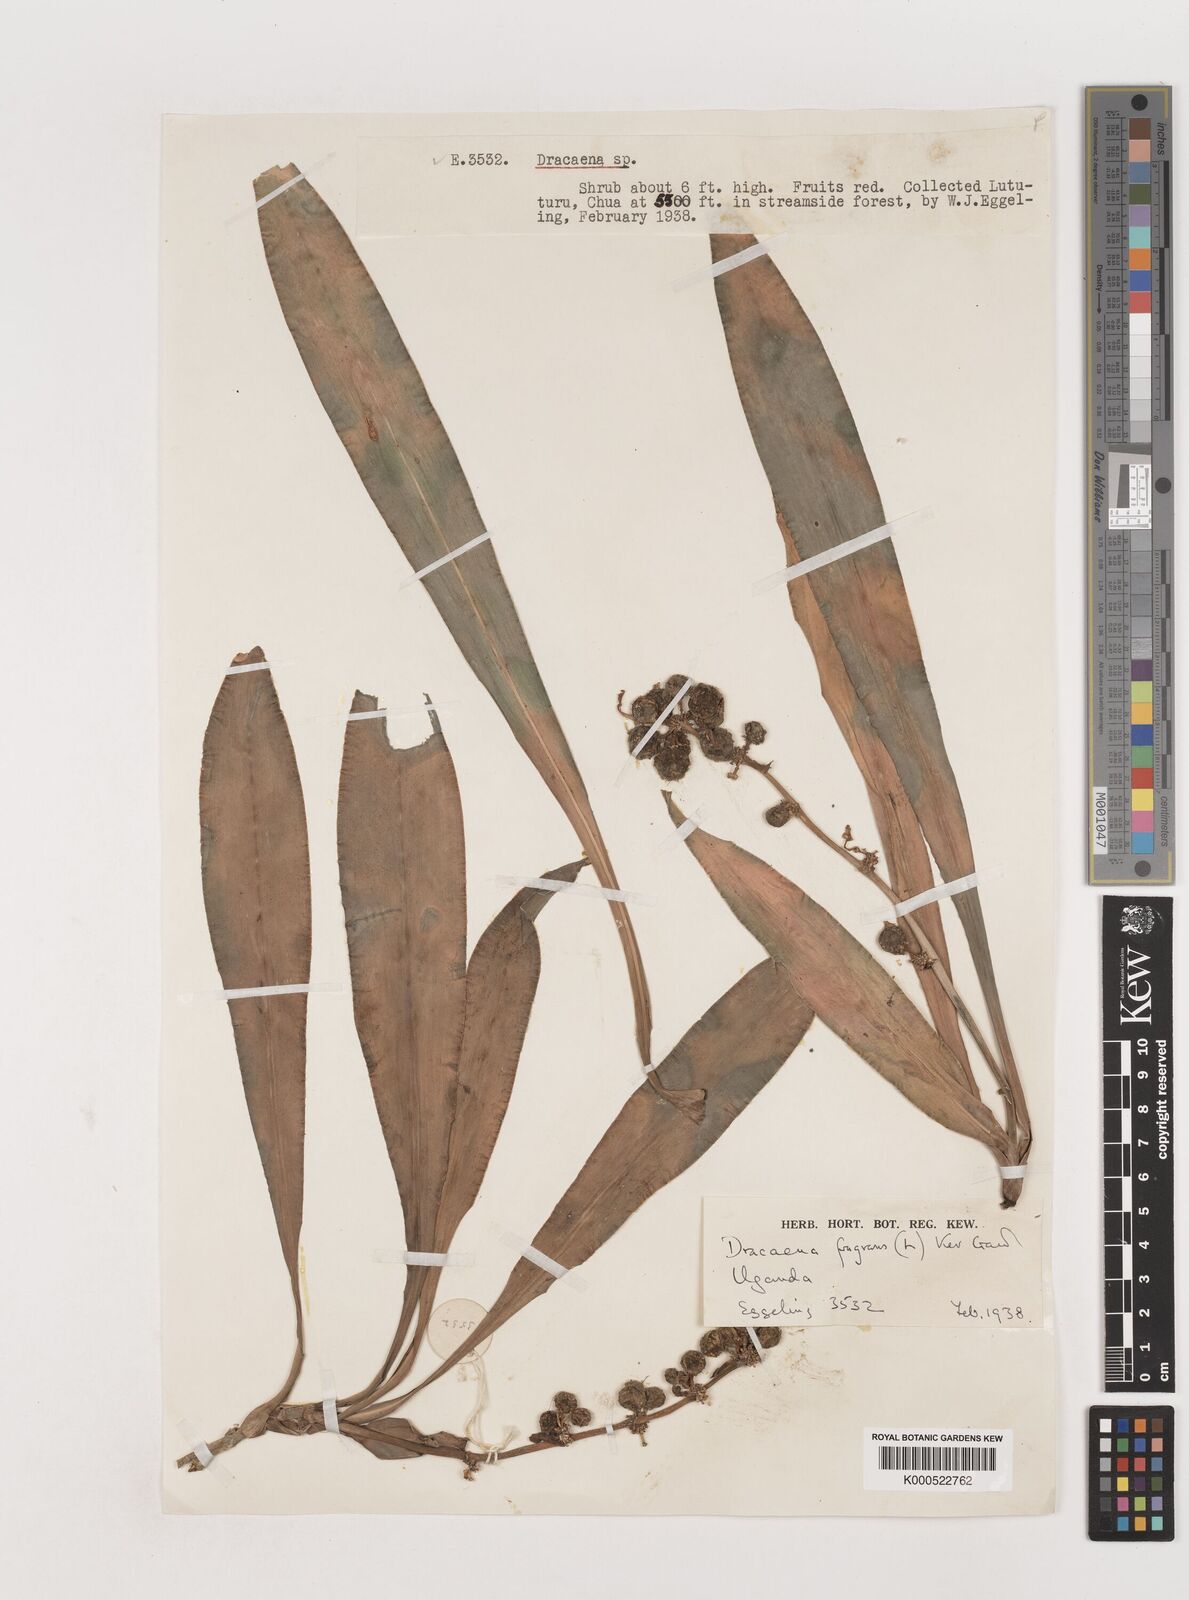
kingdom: Plantae
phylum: Tracheophyta
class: Liliopsida
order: Asparagales
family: Asparagaceae
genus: Dracaena
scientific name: Dracaena fragrans
